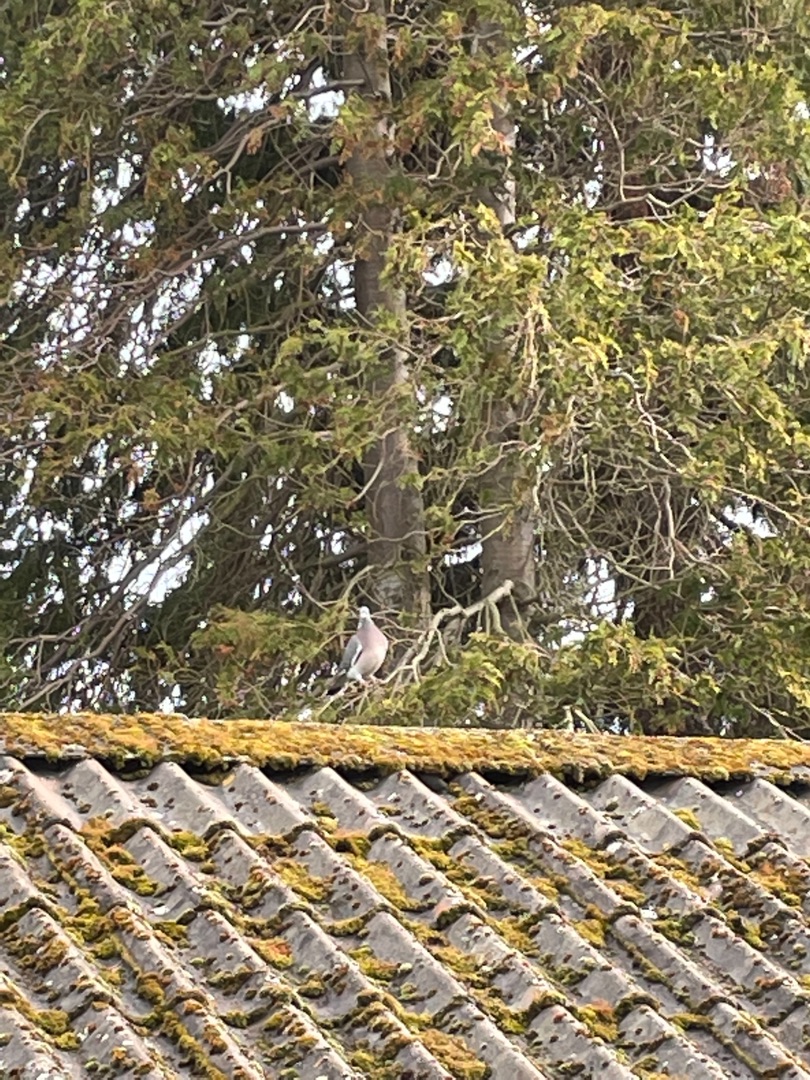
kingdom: Animalia
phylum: Chordata
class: Aves
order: Columbiformes
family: Columbidae
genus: Columba
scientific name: Columba palumbus
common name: Ringdue
